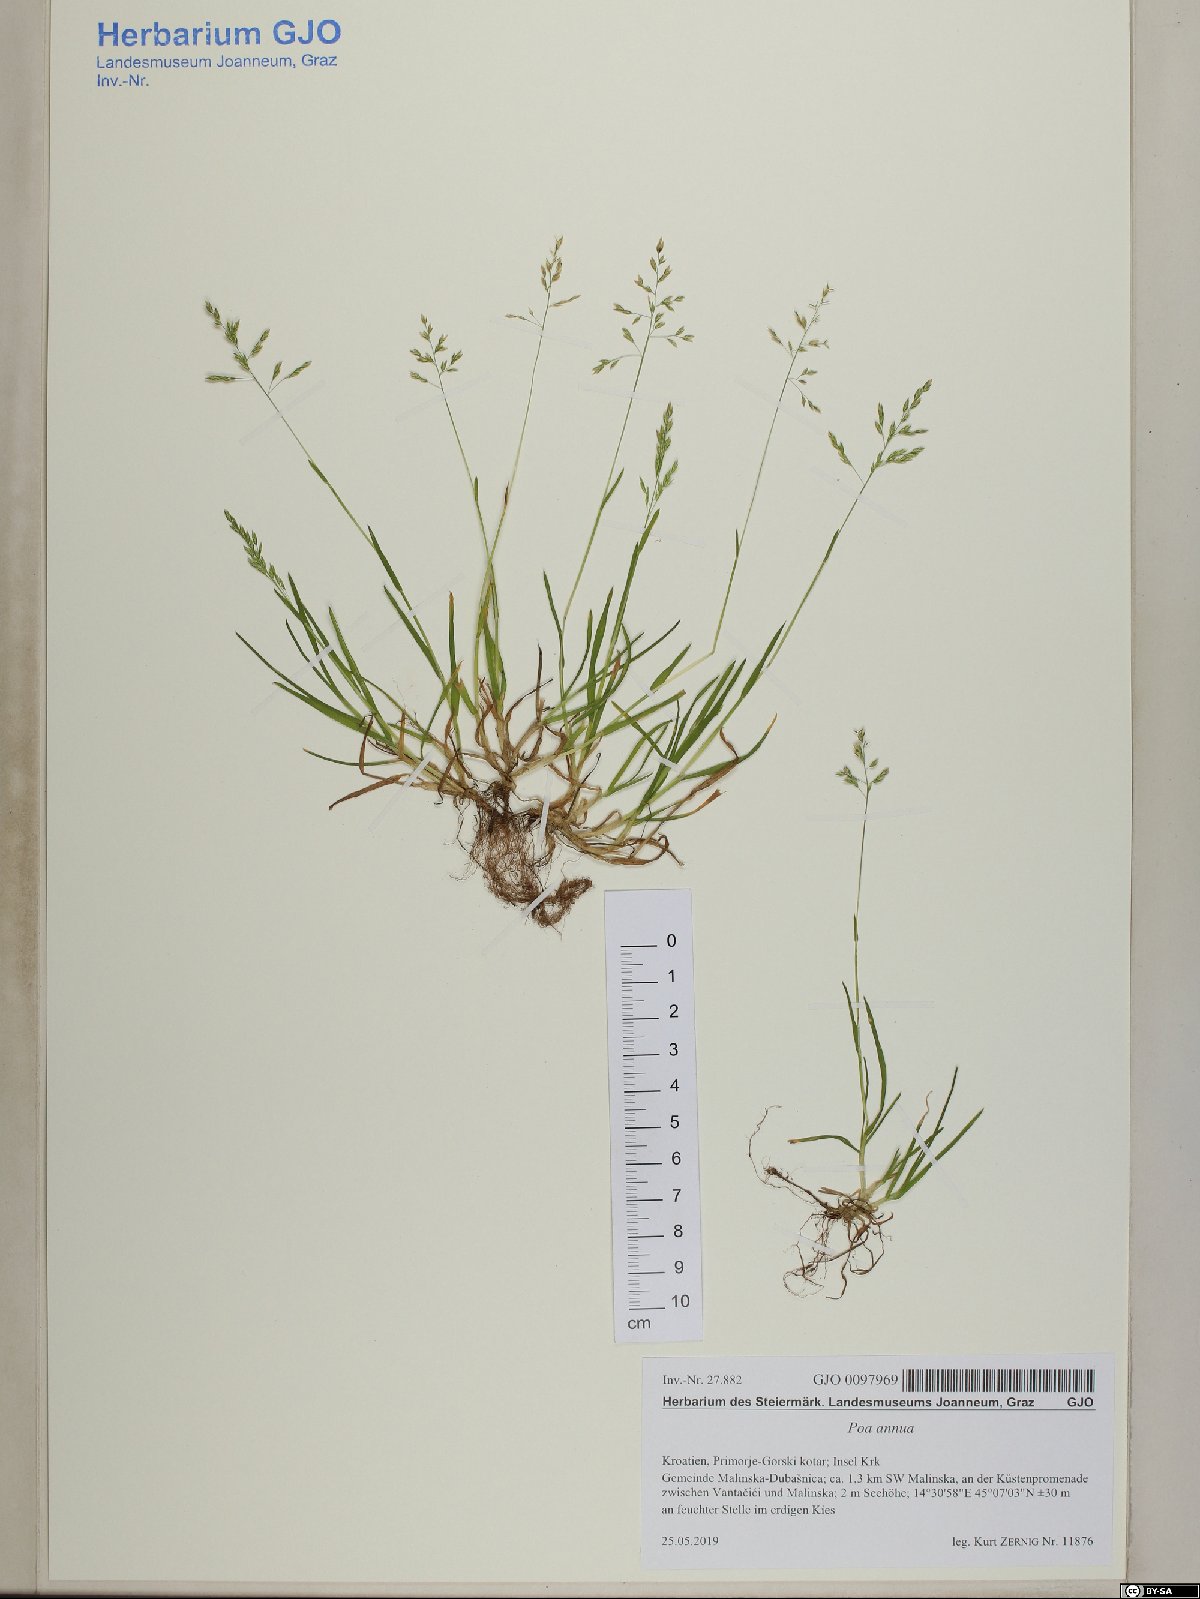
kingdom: Plantae
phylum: Tracheophyta
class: Liliopsida
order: Poales
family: Poaceae
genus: Poa
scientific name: Poa annua
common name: Annual bluegrass
